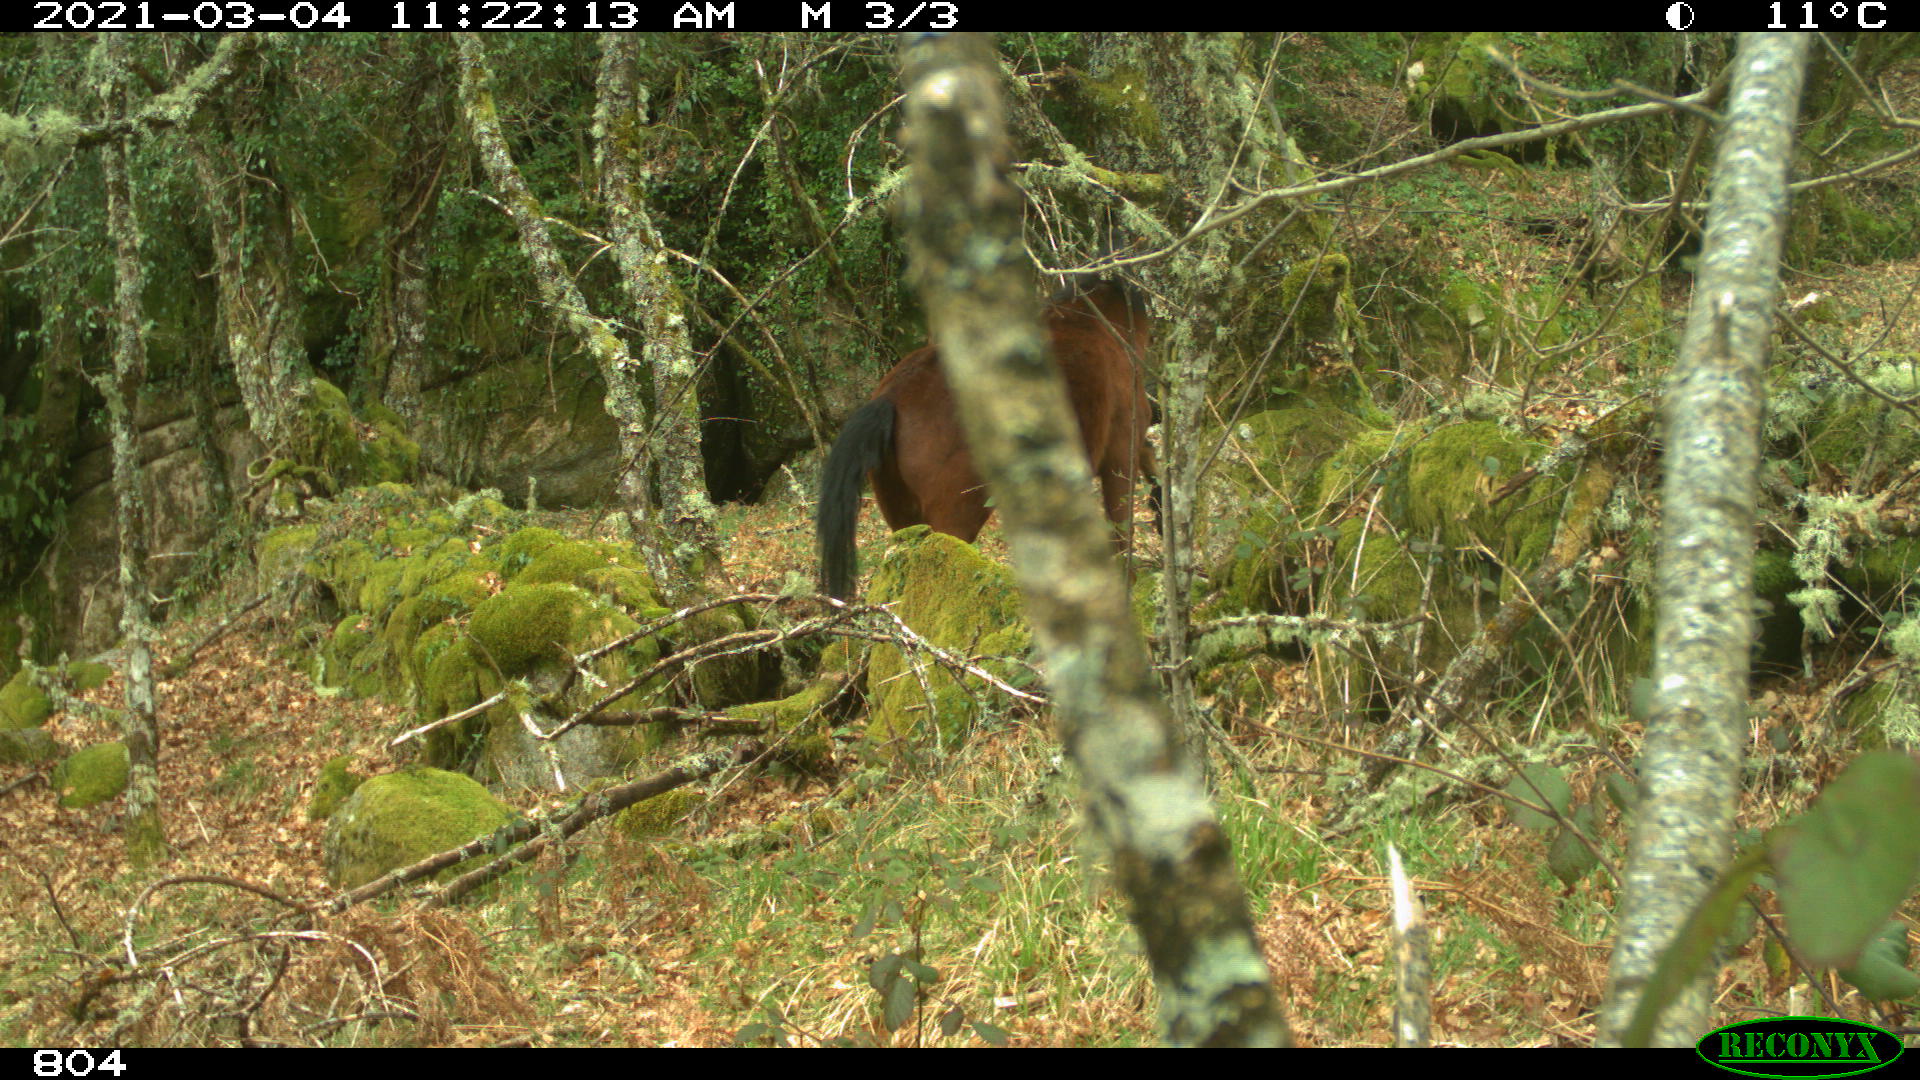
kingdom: Animalia
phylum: Chordata
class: Mammalia
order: Perissodactyla
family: Equidae
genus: Equus
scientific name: Equus caballus
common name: Horse
